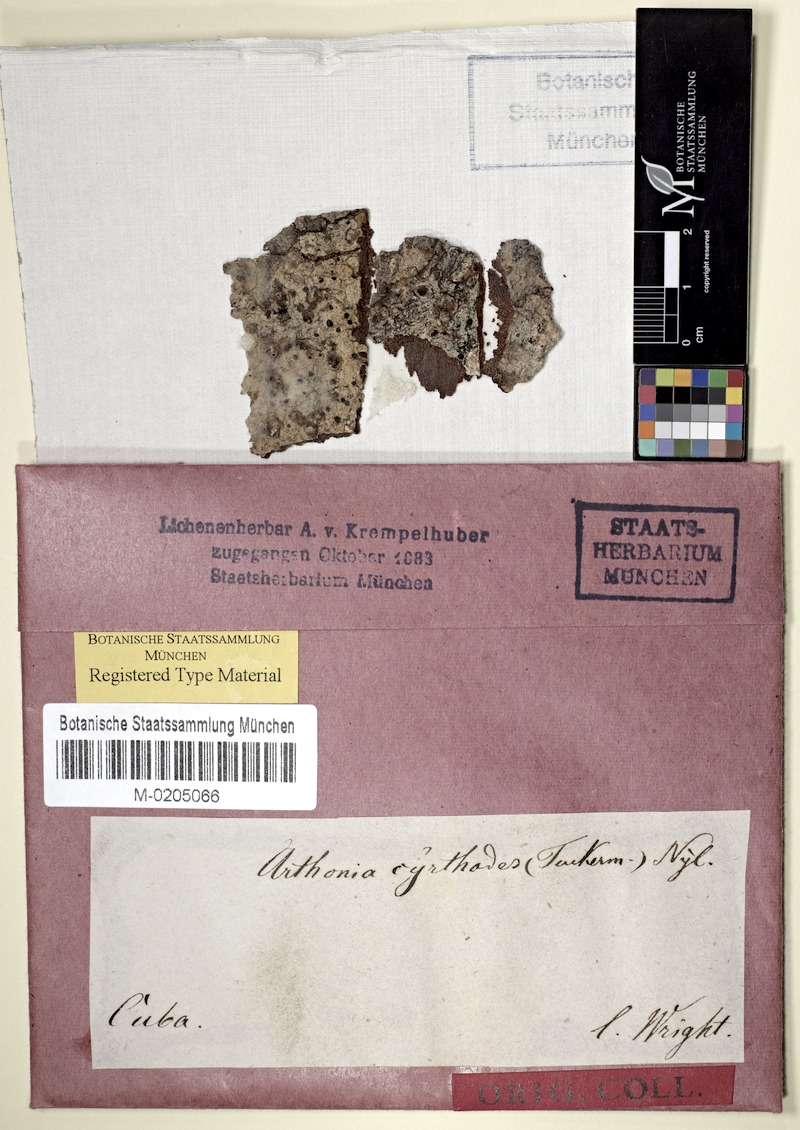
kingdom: Fungi
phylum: Ascomycota
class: Arthoniomycetes
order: Arthoniales
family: Arthoniaceae
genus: Arthothelium
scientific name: Arthothelium cyrtodes
